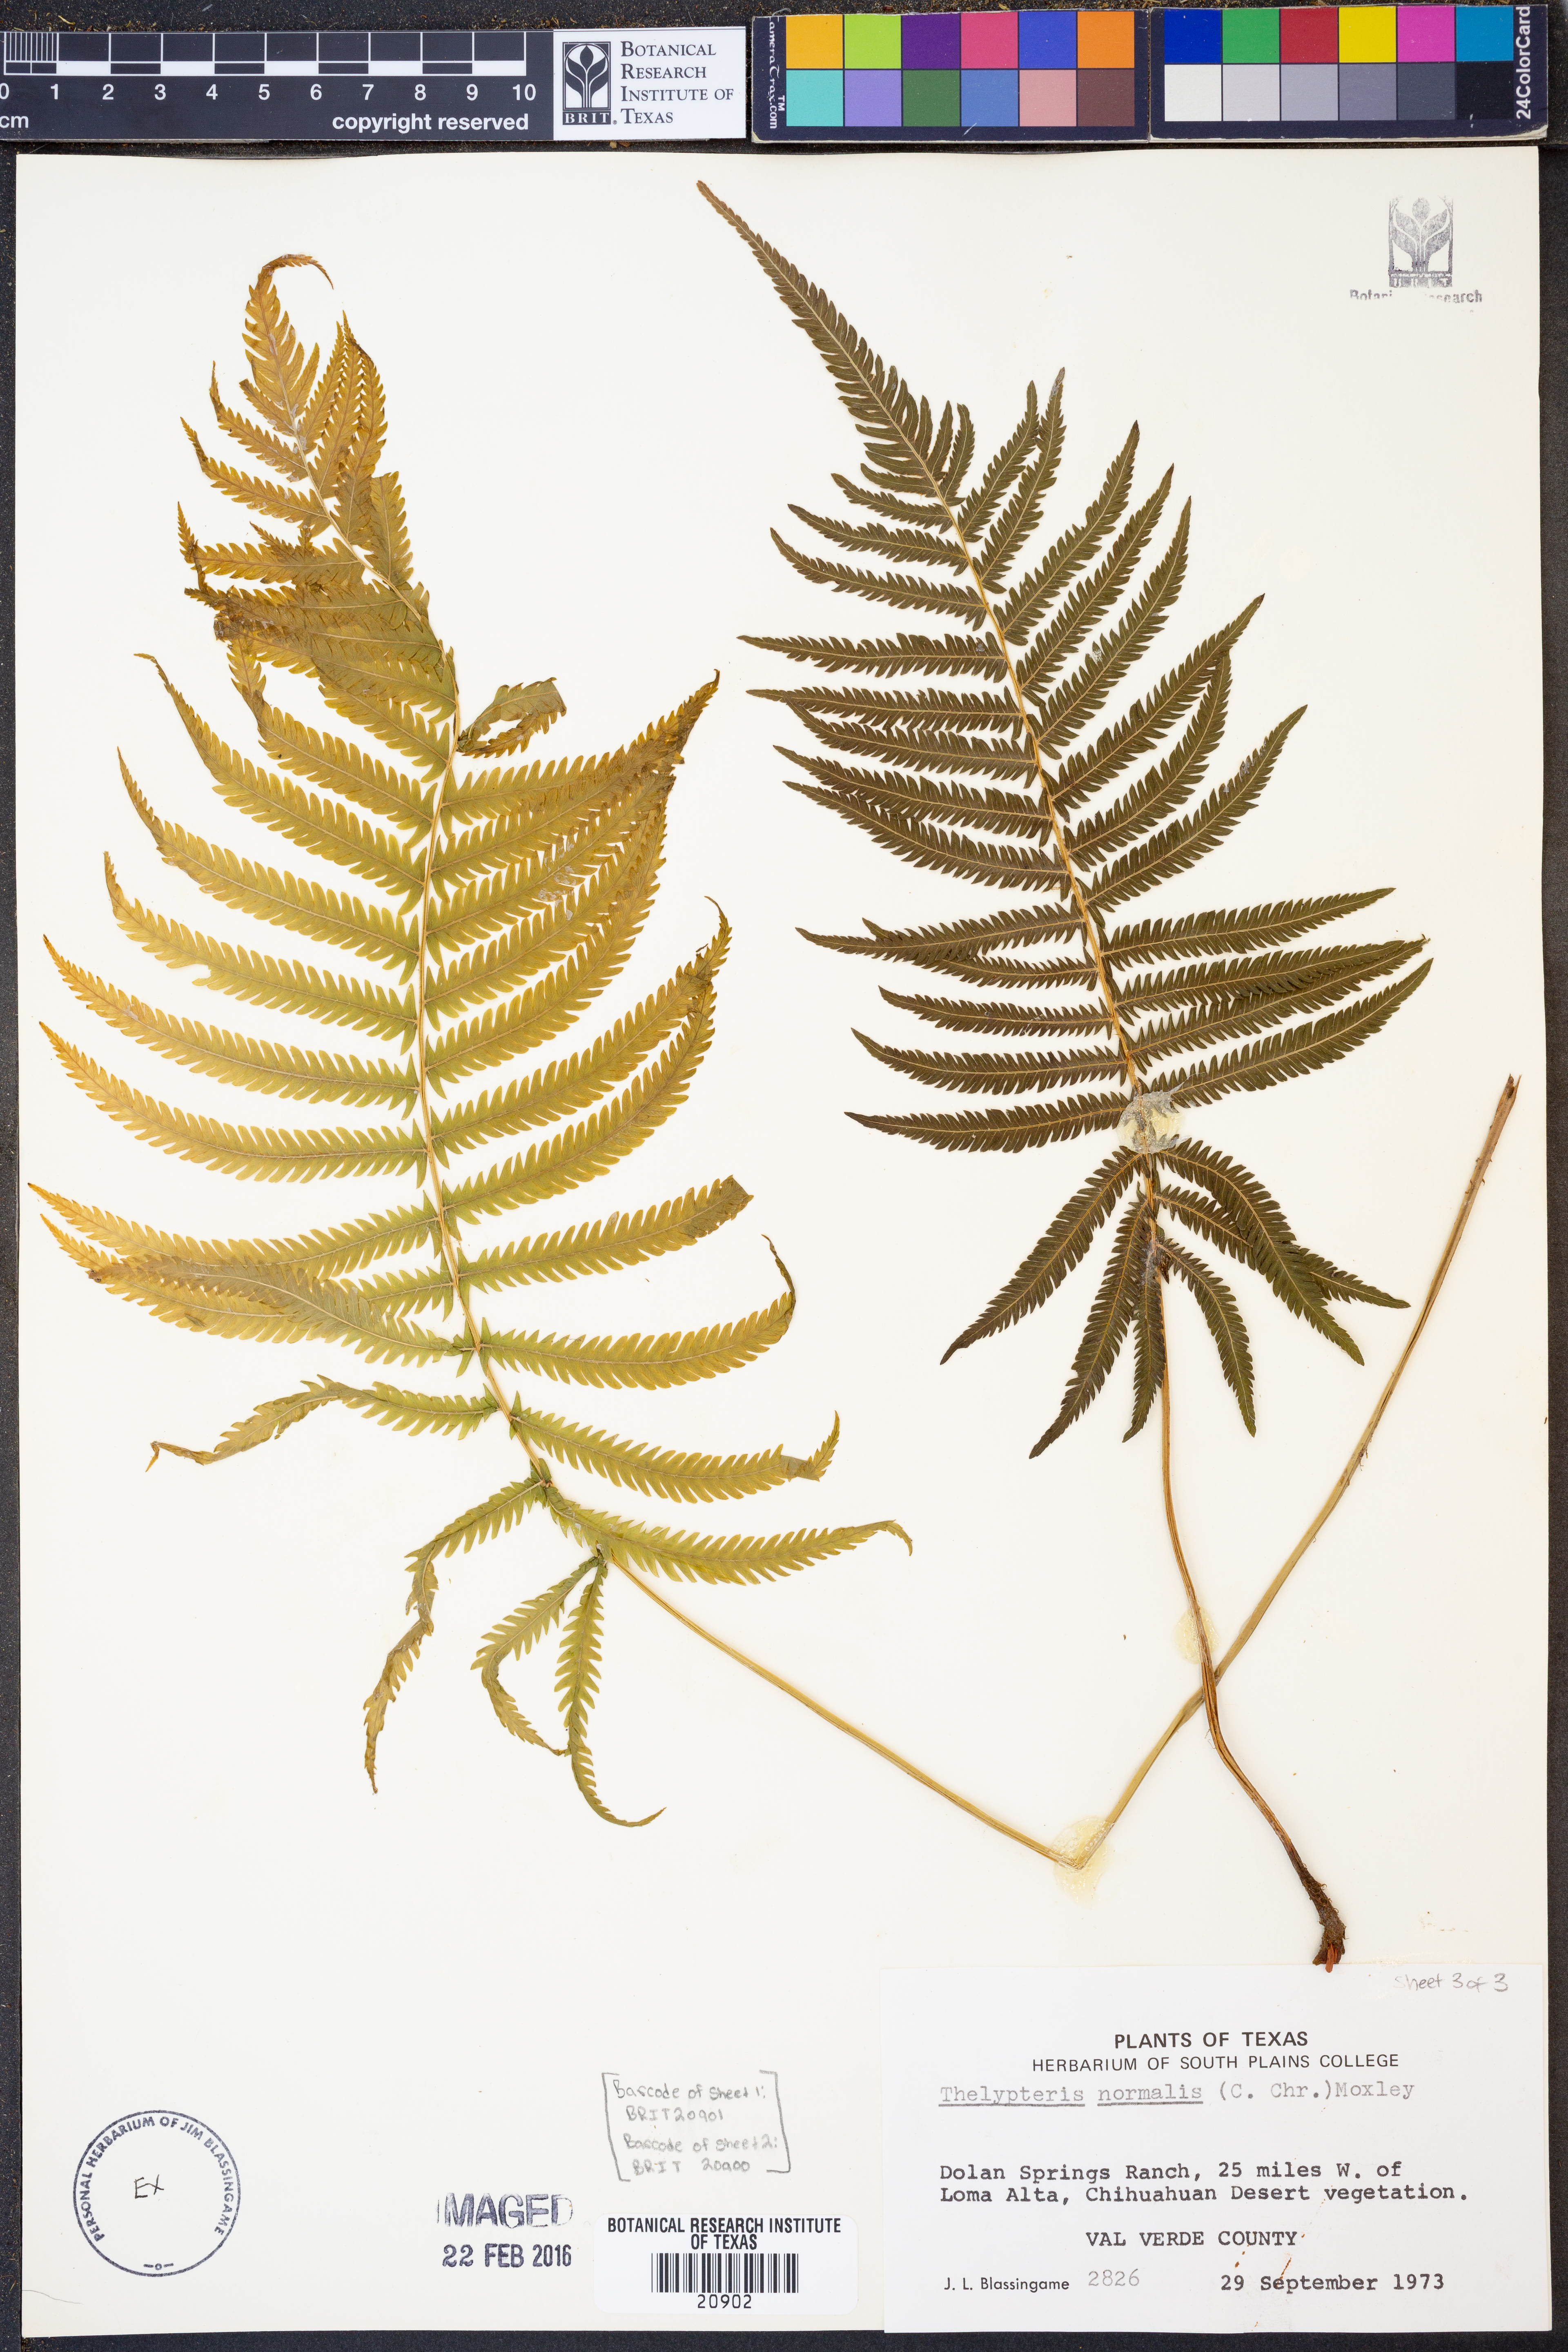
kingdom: Plantae
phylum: Tracheophyta
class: Polypodiopsida
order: Polypodiales
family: Thelypteridaceae
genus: Pelazoneuron
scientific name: Pelazoneuron kunthii
